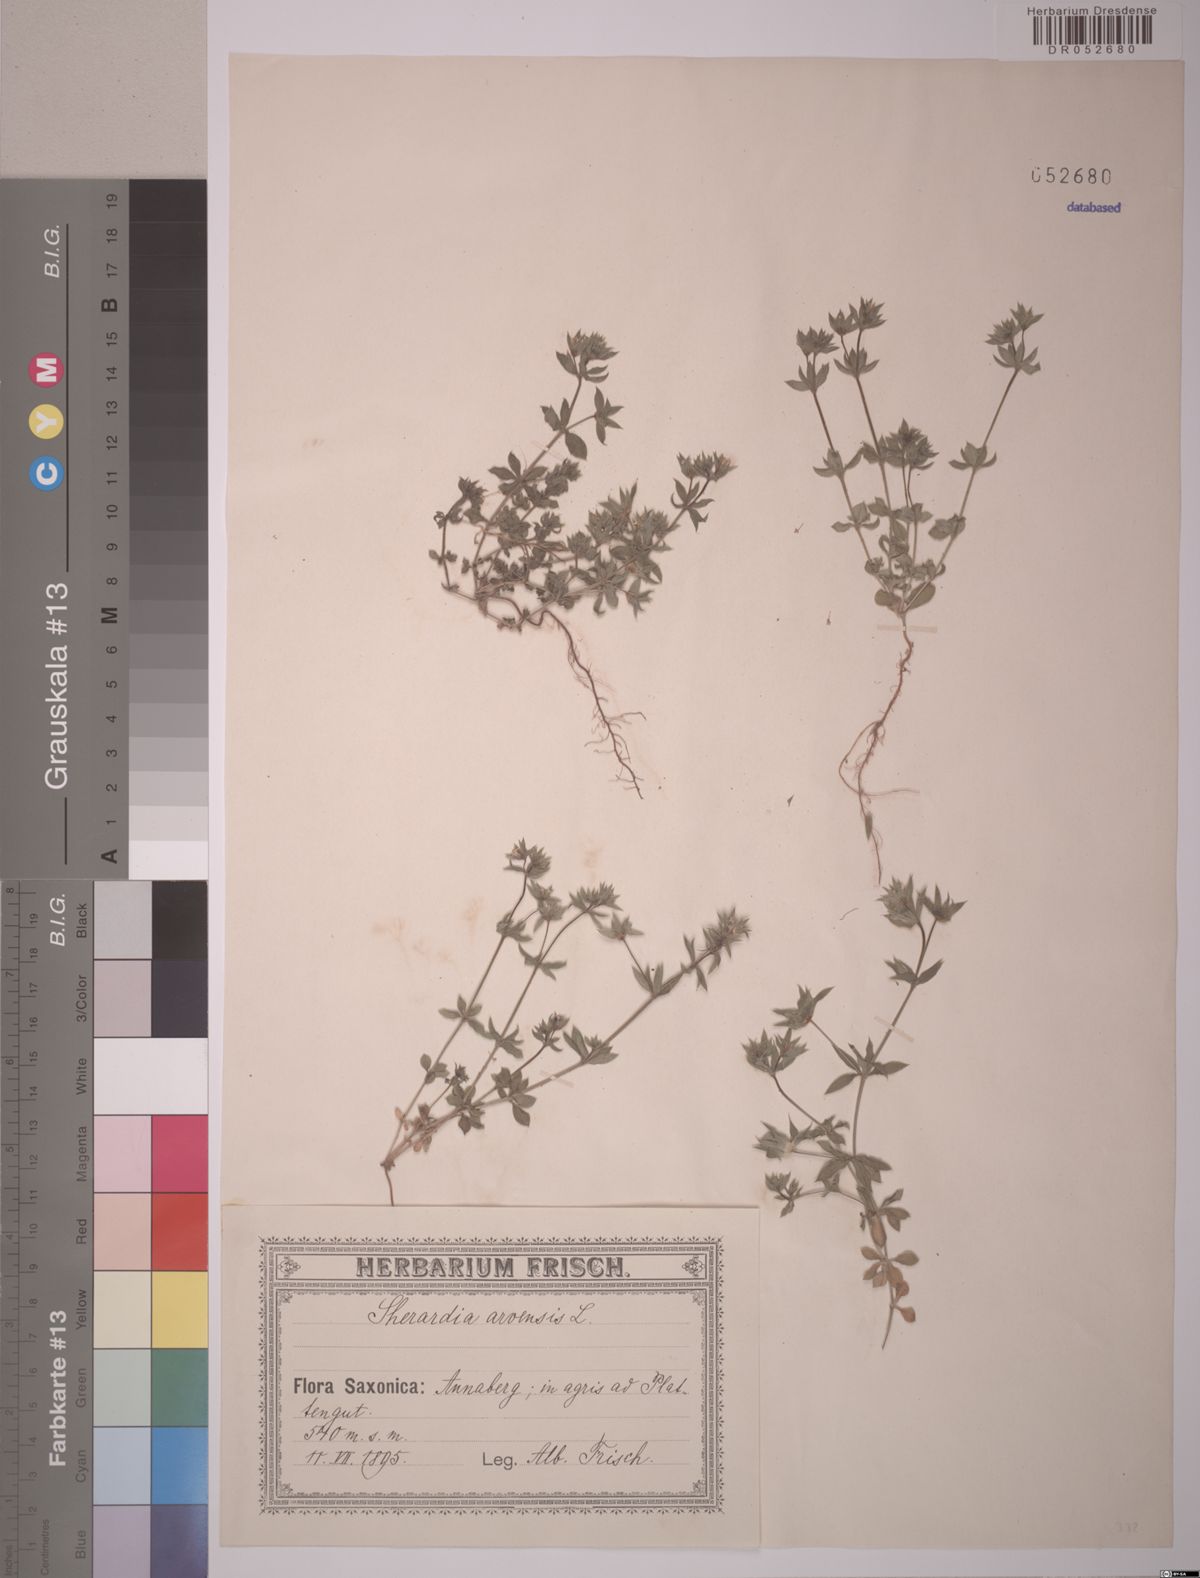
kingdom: Plantae
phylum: Tracheophyta
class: Magnoliopsida
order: Gentianales
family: Rubiaceae
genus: Sherardia
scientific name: Sherardia arvensis
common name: Field madder
